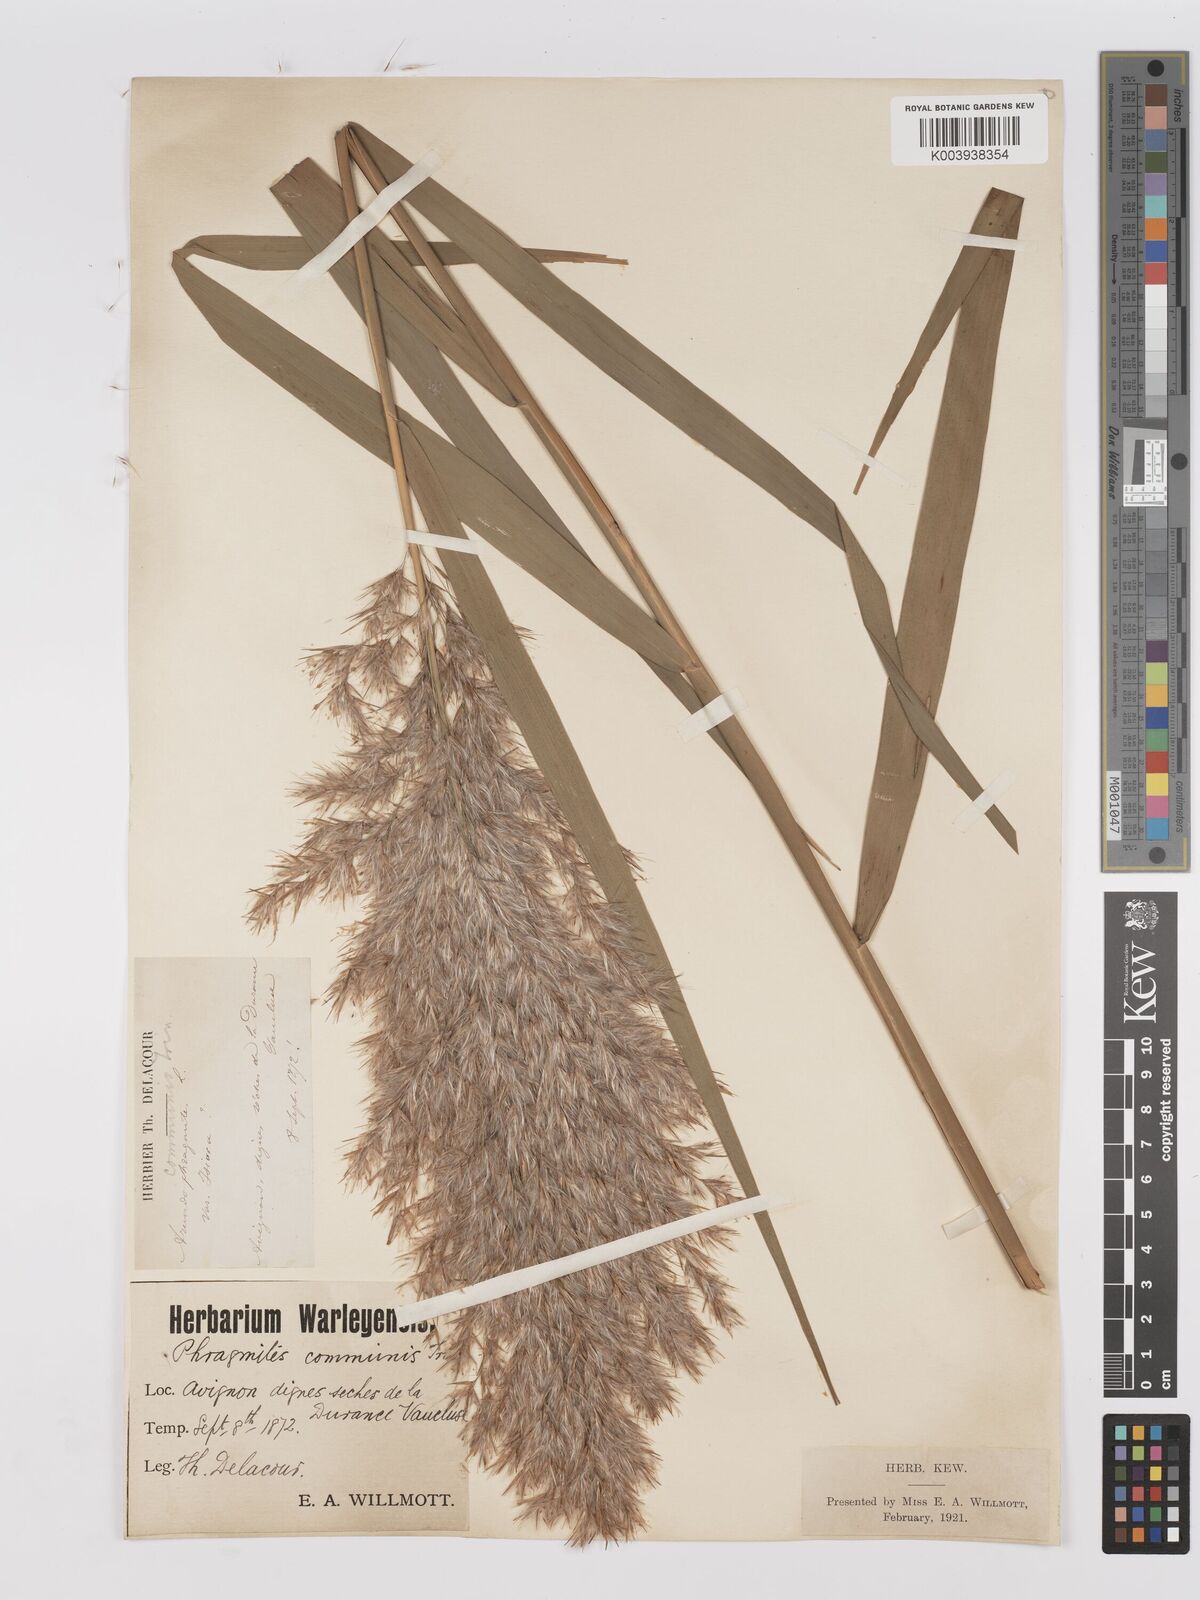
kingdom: Plantae
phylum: Tracheophyta
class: Liliopsida
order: Poales
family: Poaceae
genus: Phragmites
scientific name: Phragmites australis
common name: Common reed
